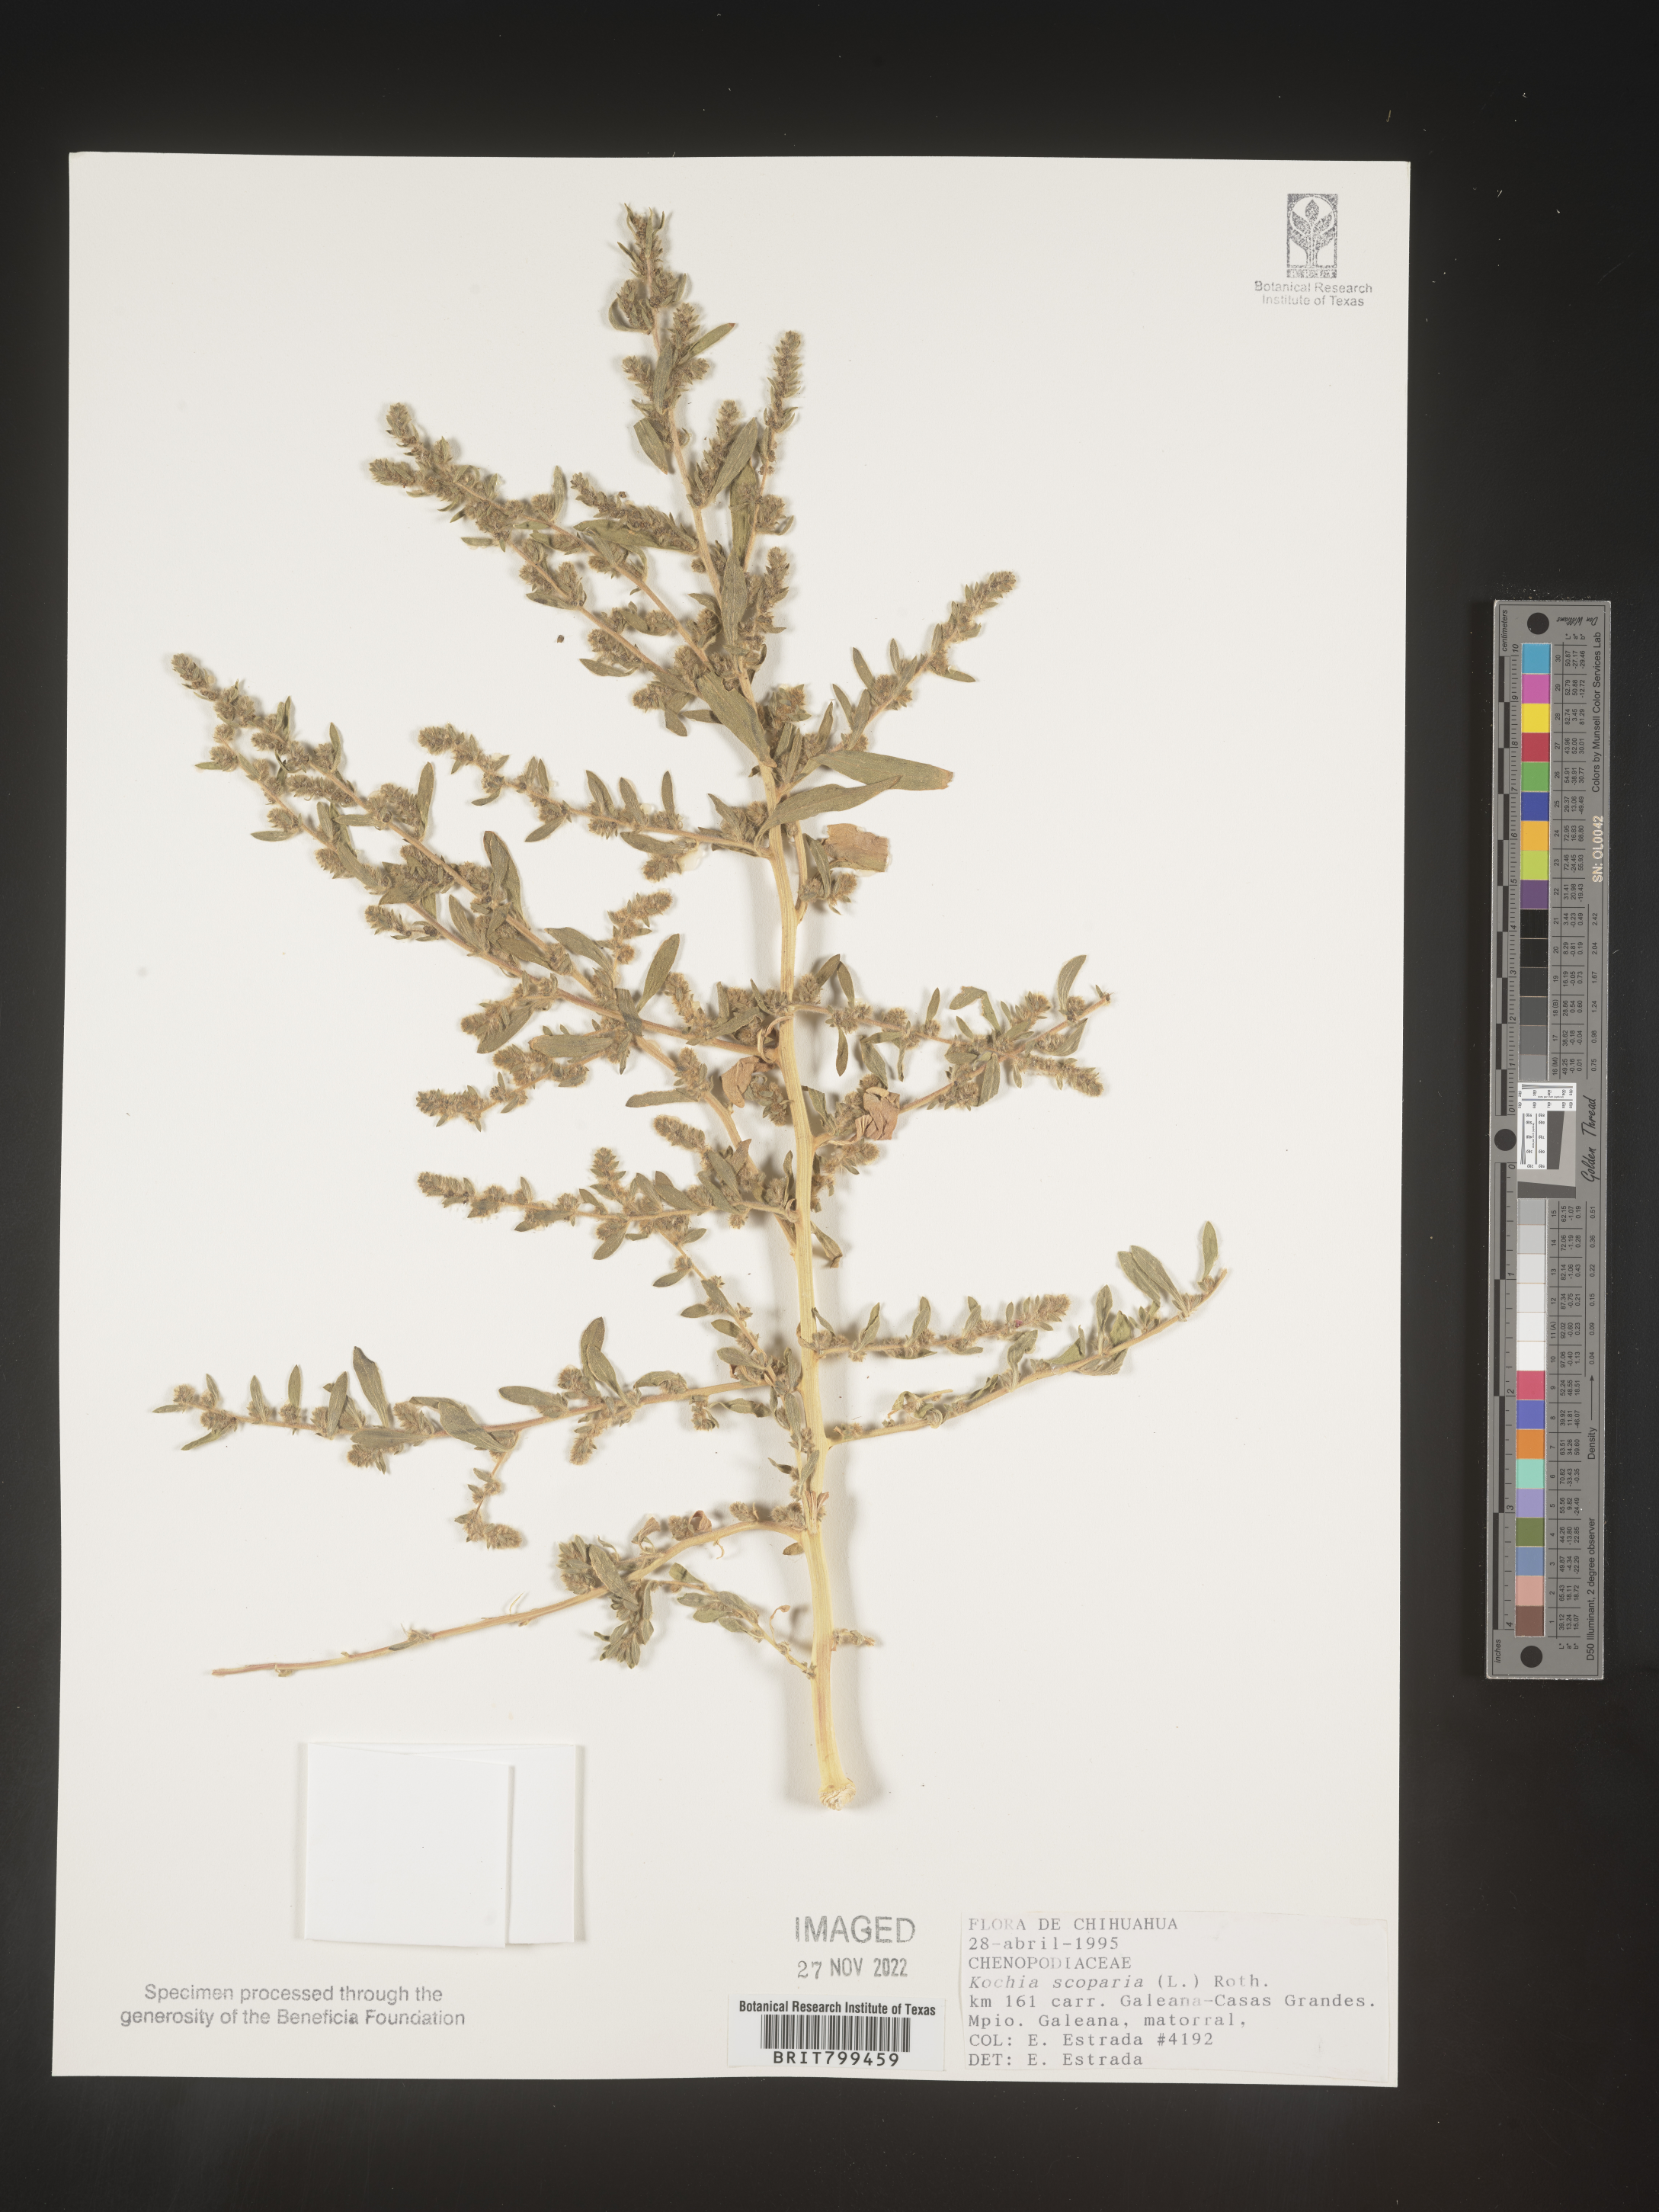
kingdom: Plantae
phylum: Tracheophyta
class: Magnoliopsida
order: Caryophyllales
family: Amaranthaceae
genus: Bassia
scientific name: Bassia
